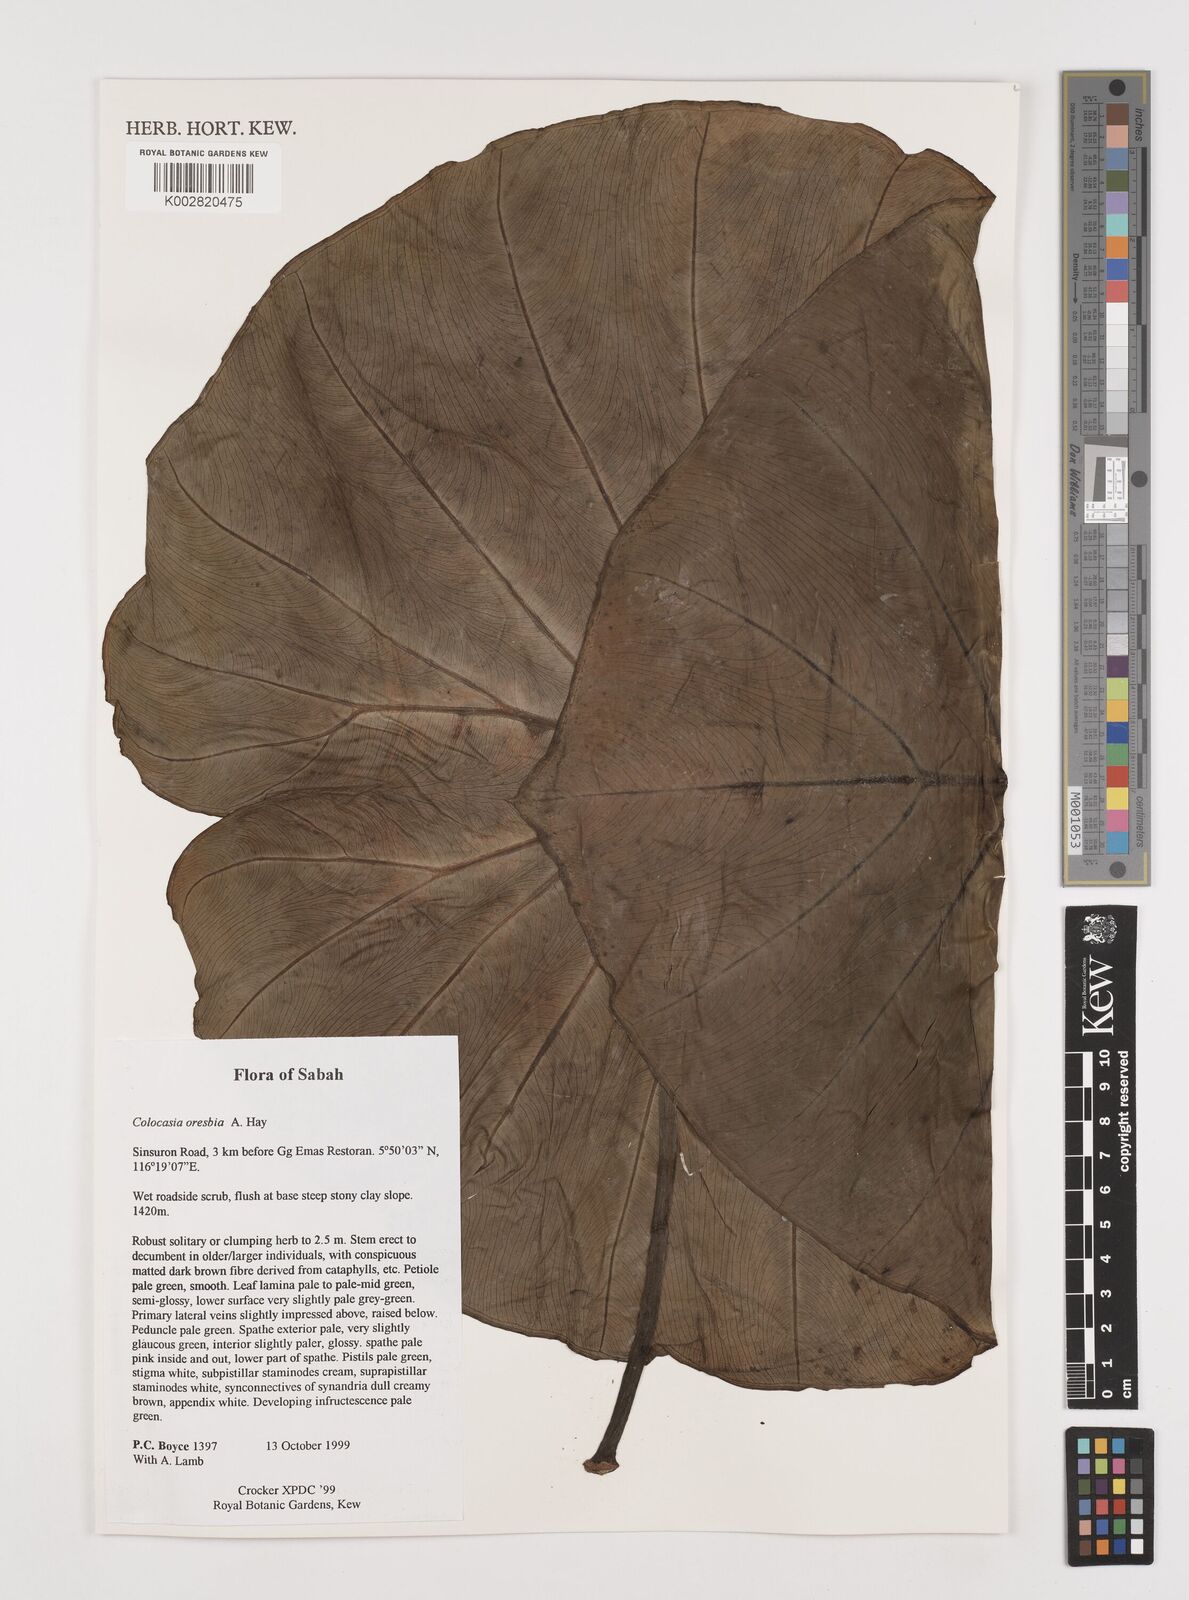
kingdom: Plantae
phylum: Tracheophyta
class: Liliopsida
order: Alismatales
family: Araceae
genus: Colocasia
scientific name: Colocasia oresbia
